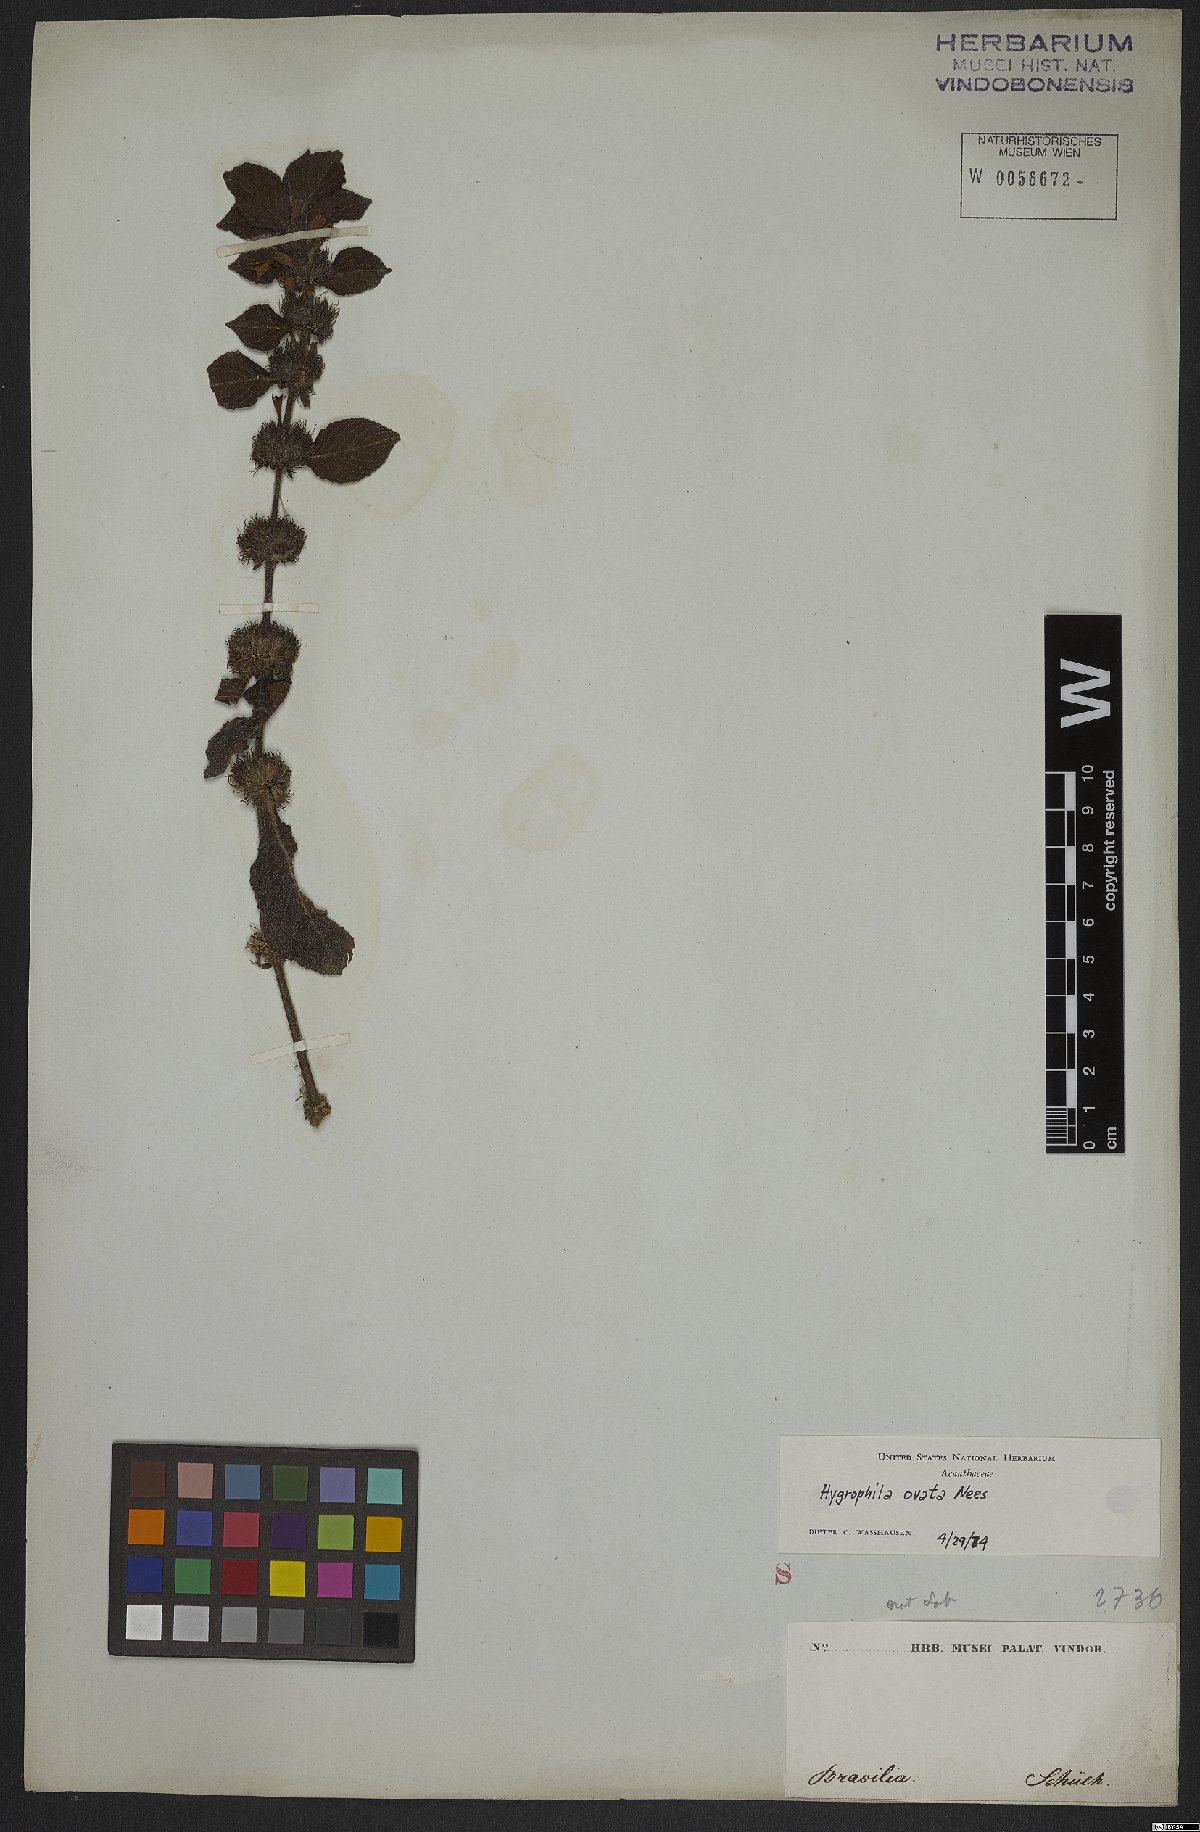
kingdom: Plantae
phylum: Tracheophyta
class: Magnoliopsida
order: Lamiales
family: Acanthaceae
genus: Hygrophila
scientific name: Hygrophila ovata
